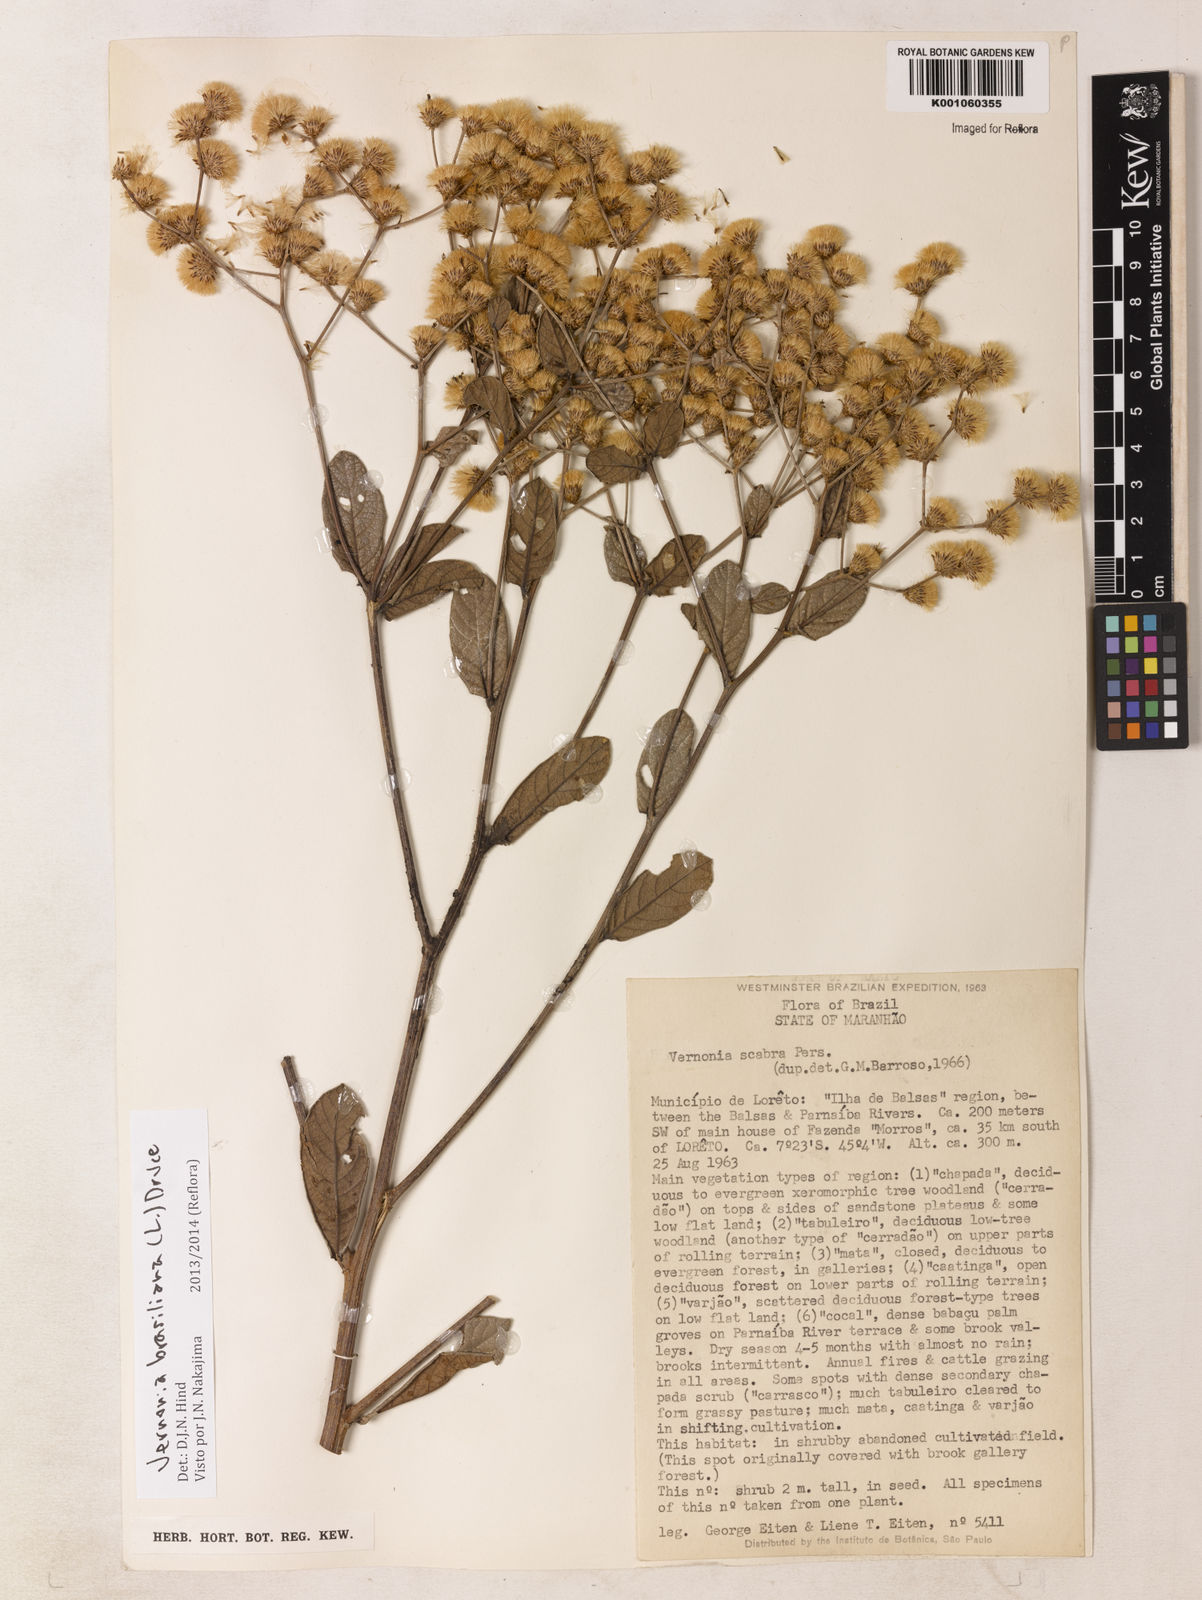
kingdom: Plantae
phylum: Tracheophyta
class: Magnoliopsida
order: Asterales
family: Asteraceae
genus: Vernonanthura
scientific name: Vernonanthura brasiliana
